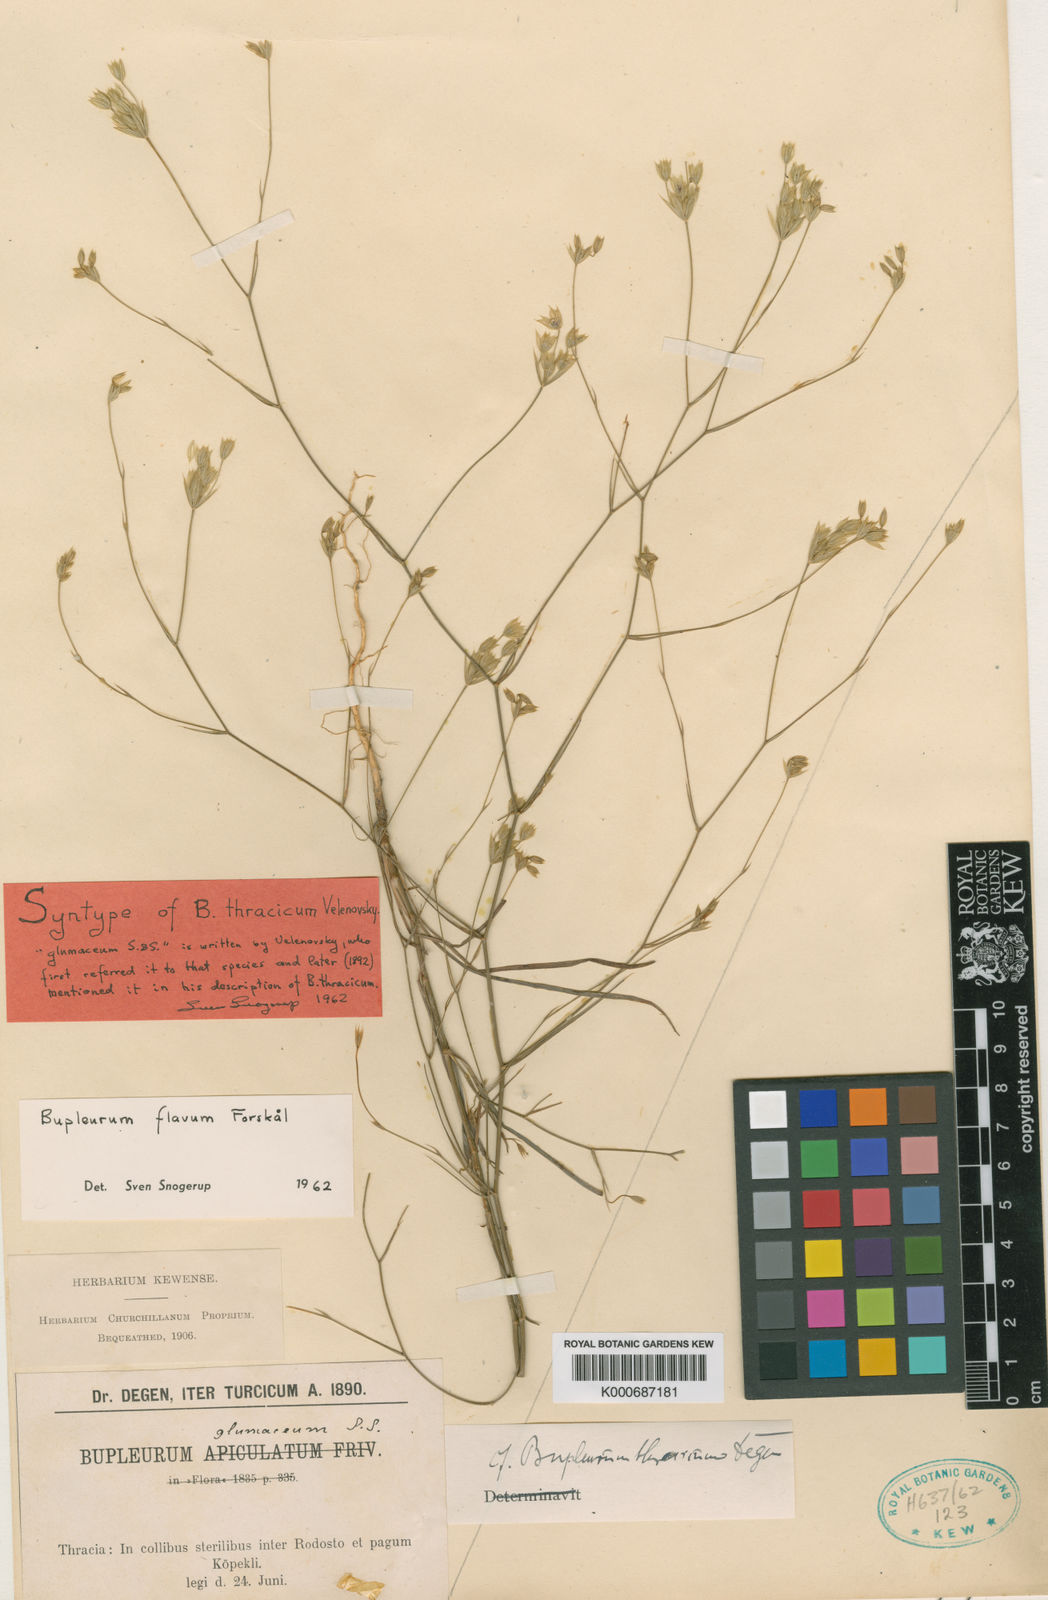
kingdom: Plantae
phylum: Tracheophyta
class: Magnoliopsida
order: Apiales
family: Apiaceae
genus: Bupleurum
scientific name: Bupleurum flavum
